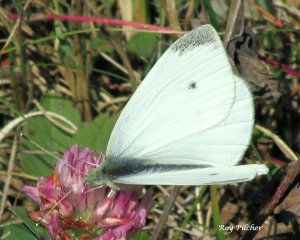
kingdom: Animalia
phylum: Arthropoda
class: Insecta
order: Lepidoptera
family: Pieridae
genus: Pieris
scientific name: Pieris rapae
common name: Cabbage White
